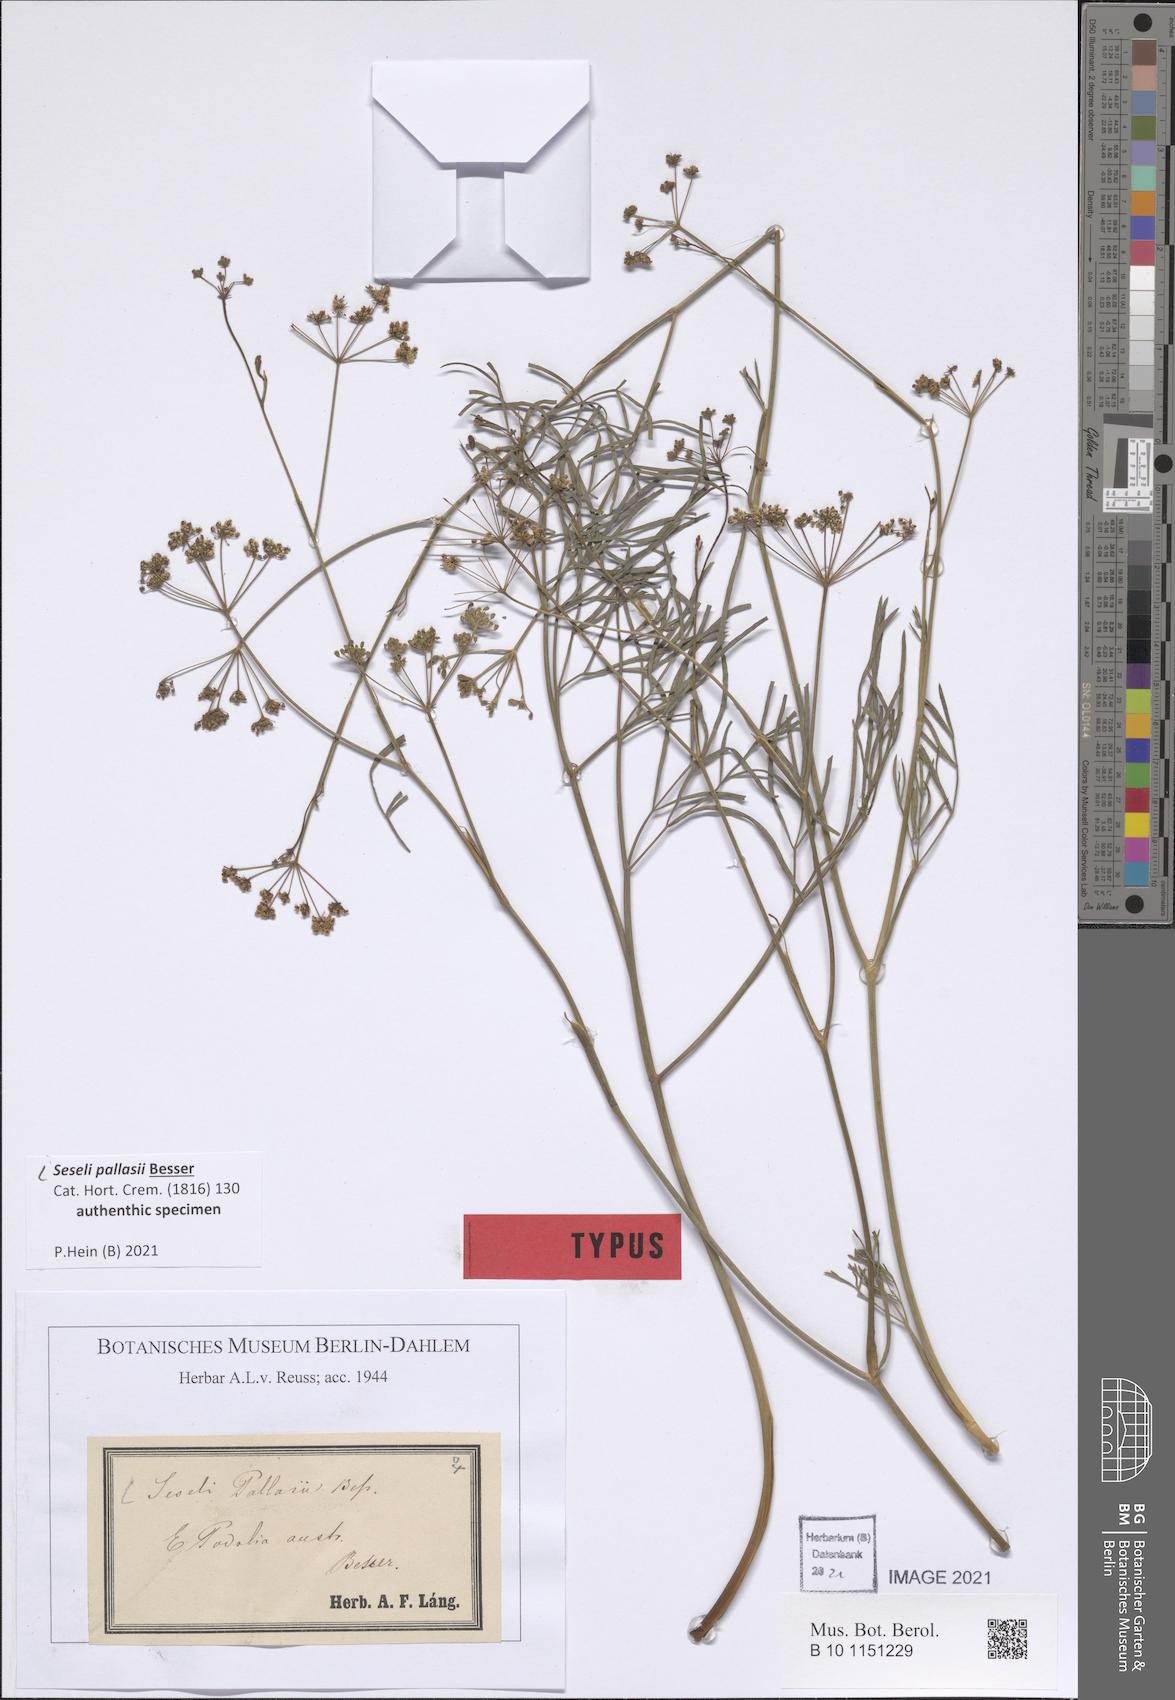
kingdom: Plantae
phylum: Tracheophyta
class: Magnoliopsida
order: Apiales
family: Apiaceae
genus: Seseli
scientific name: Seseli pallasii
